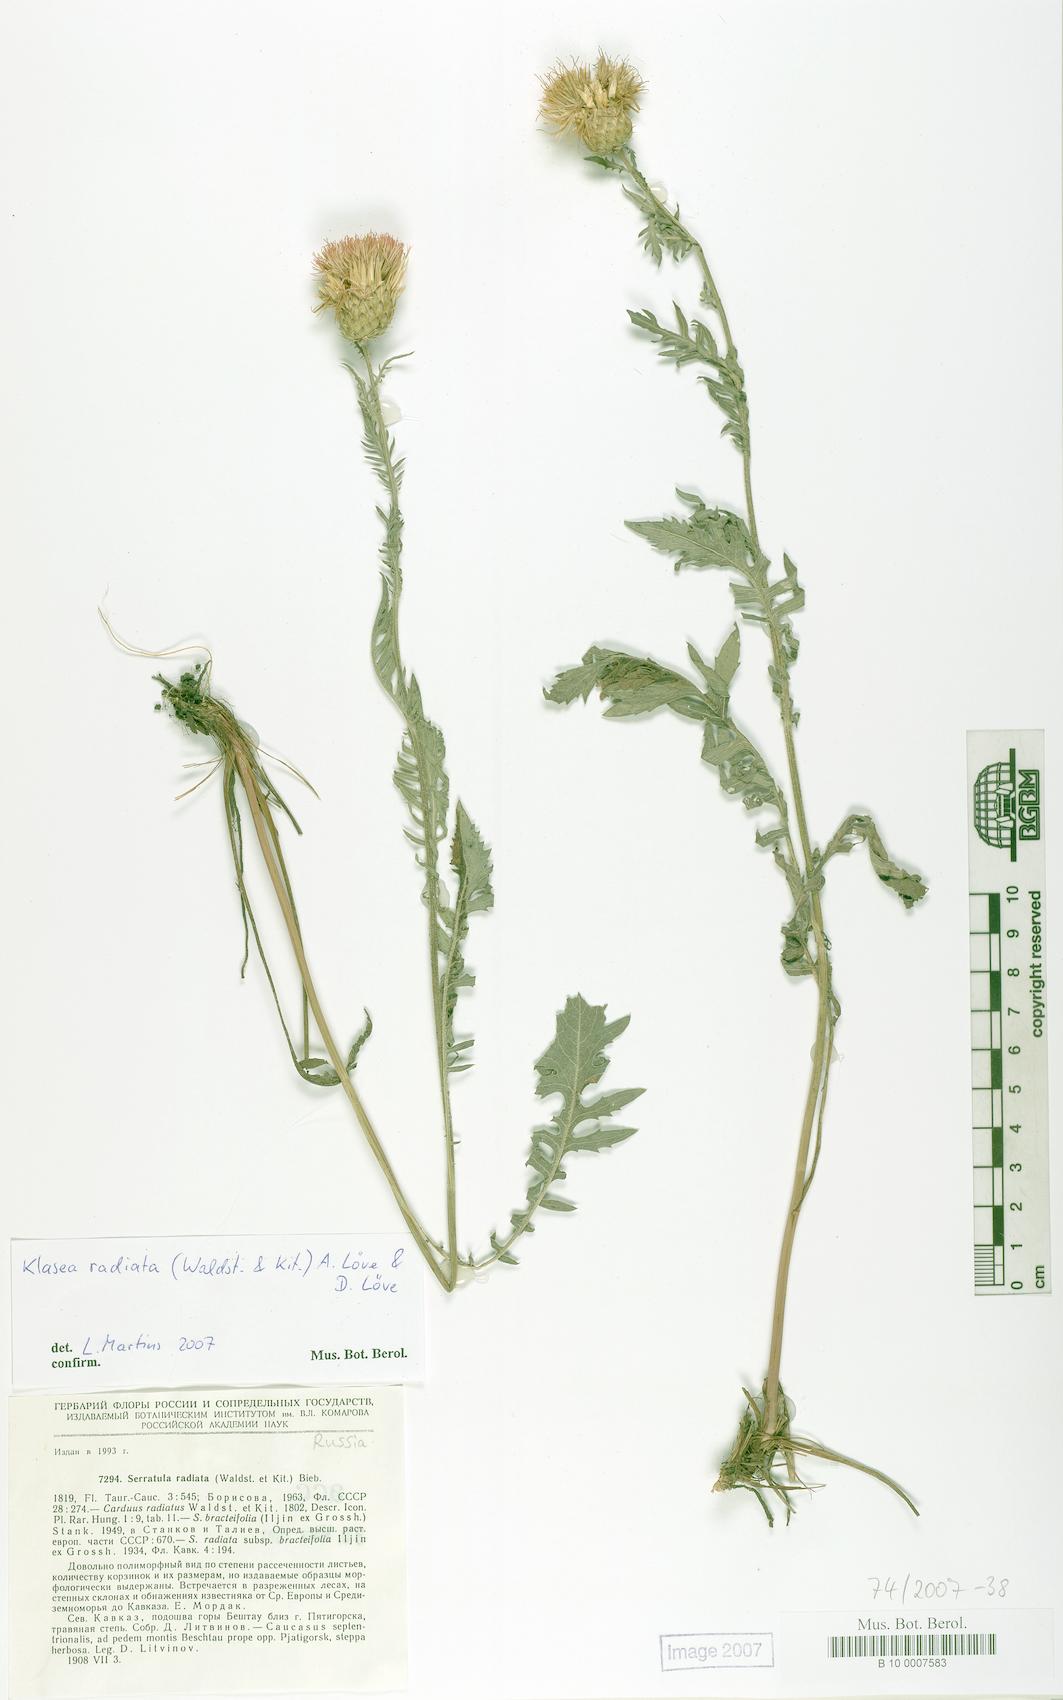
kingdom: Plantae
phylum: Tracheophyta
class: Magnoliopsida
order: Asterales
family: Asteraceae
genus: Klasea
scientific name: Klasea radiata
